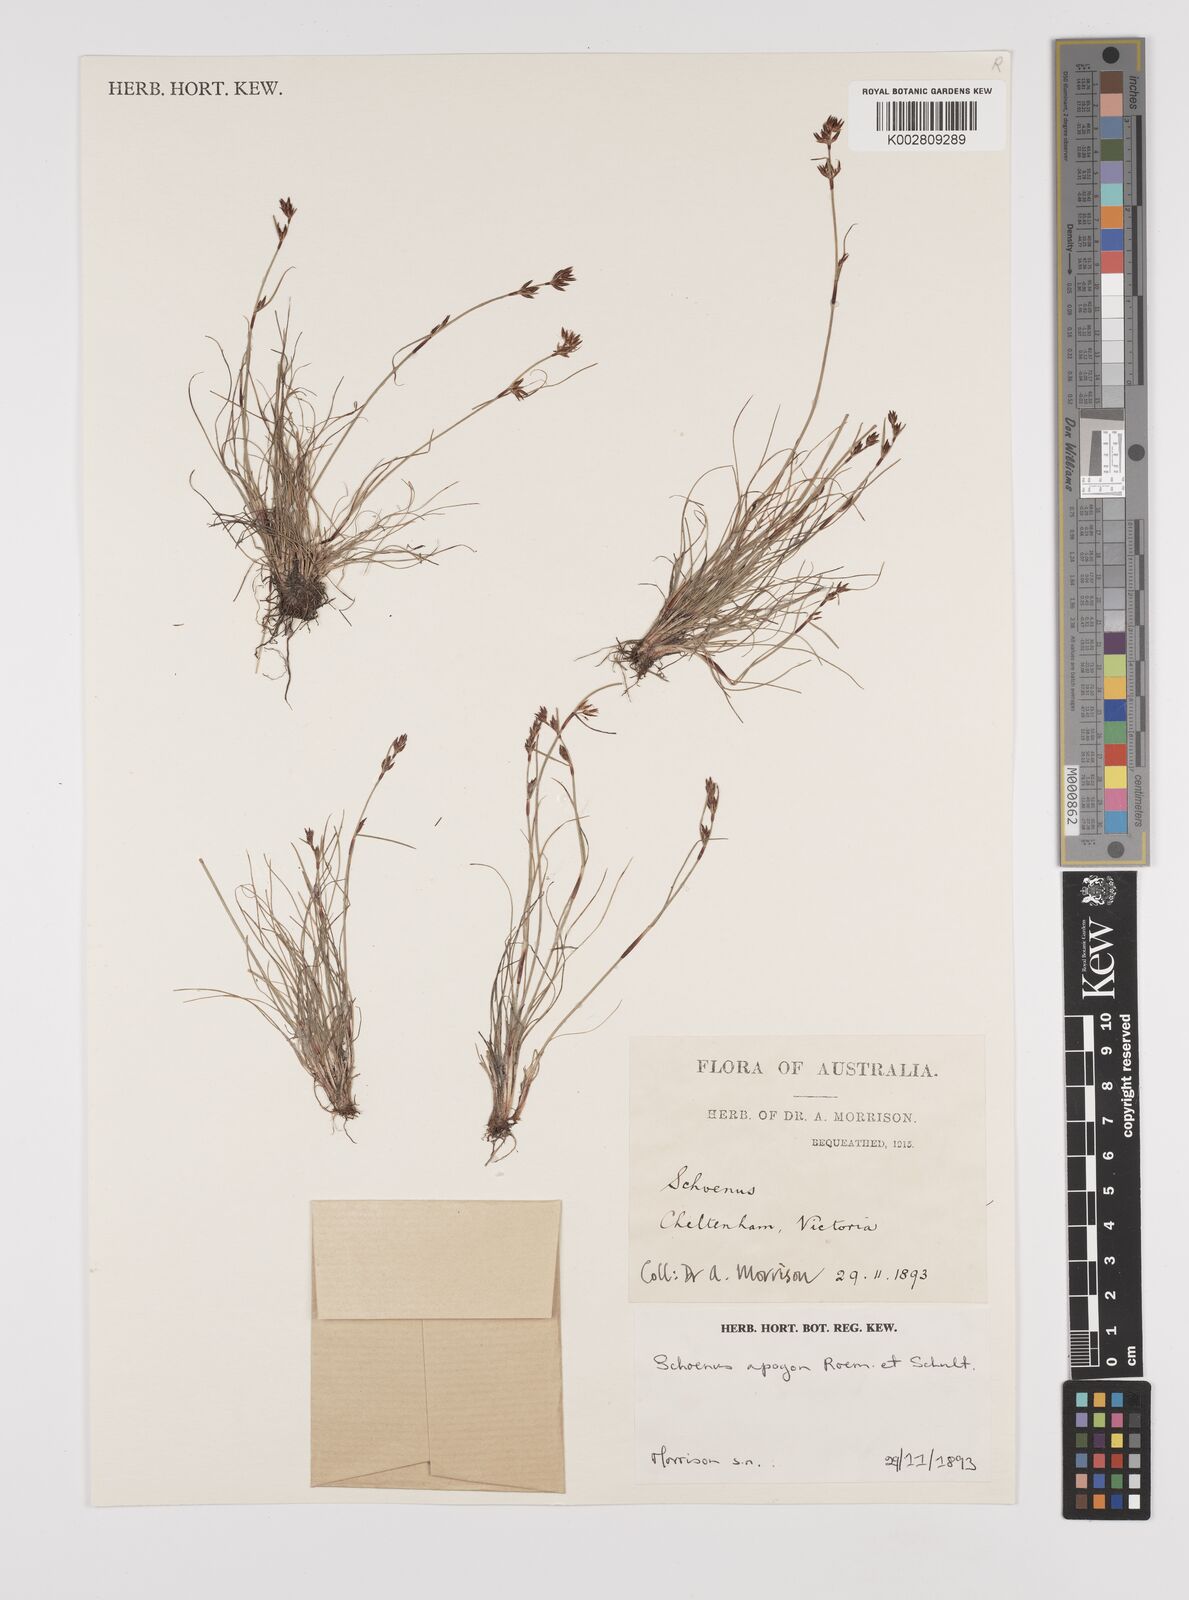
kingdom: Plantae
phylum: Tracheophyta
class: Liliopsida
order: Poales
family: Cyperaceae
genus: Schoenus
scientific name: Schoenus apogon
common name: Smooth bogrush
